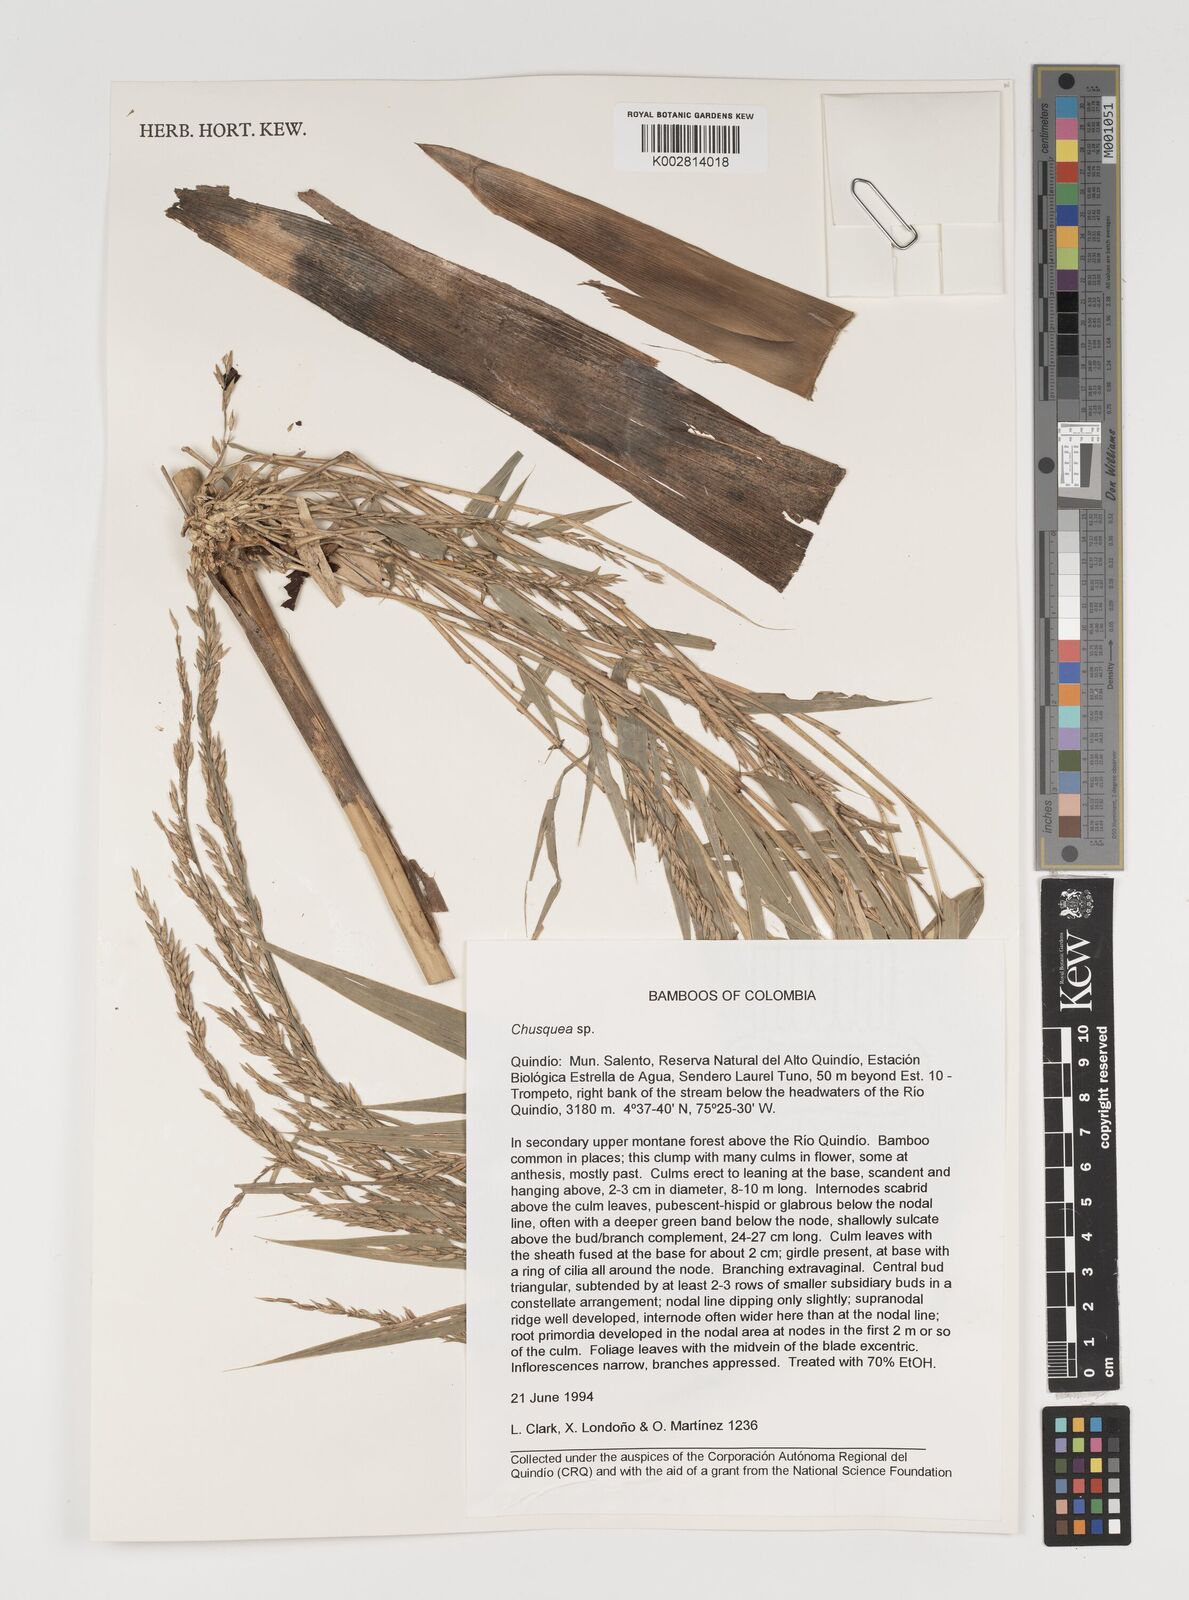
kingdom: Plantae
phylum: Tracheophyta
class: Liliopsida
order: Poales
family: Poaceae
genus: Chusquea
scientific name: Chusquea
